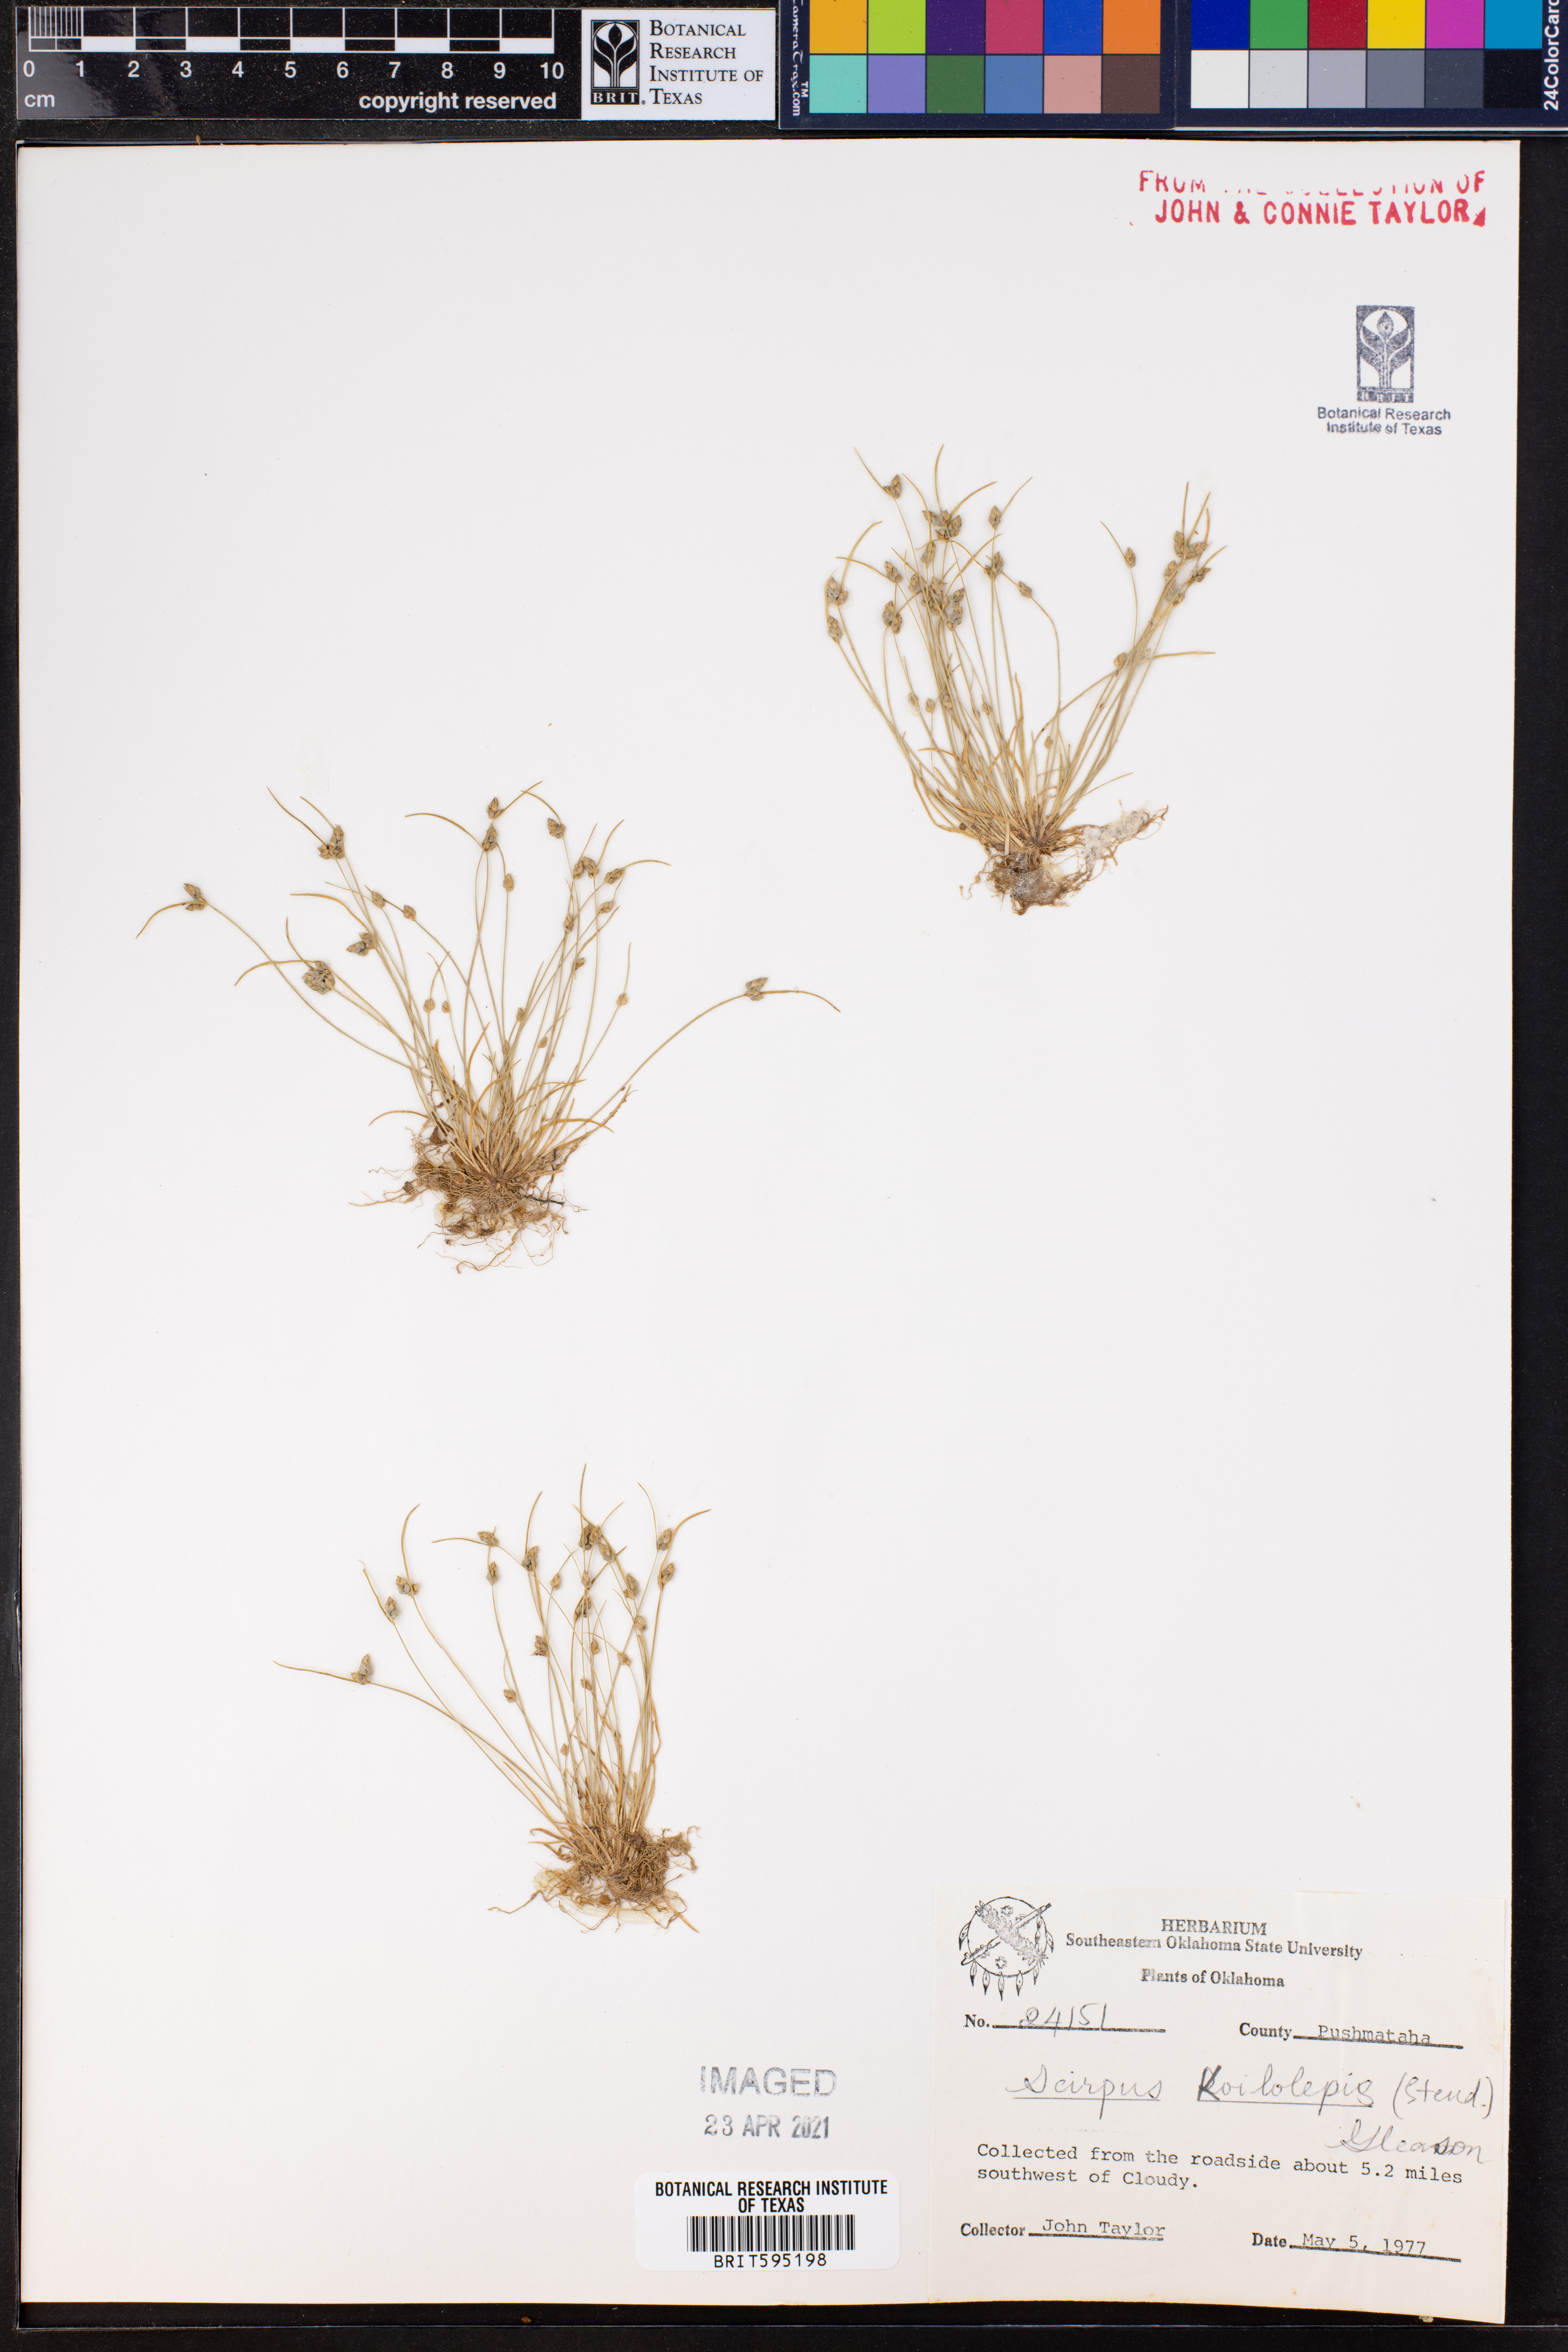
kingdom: Plantae
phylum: Tracheophyta
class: Liliopsida
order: Poales
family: Cyperaceae
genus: Isolepis
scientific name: Isolepis carinata
